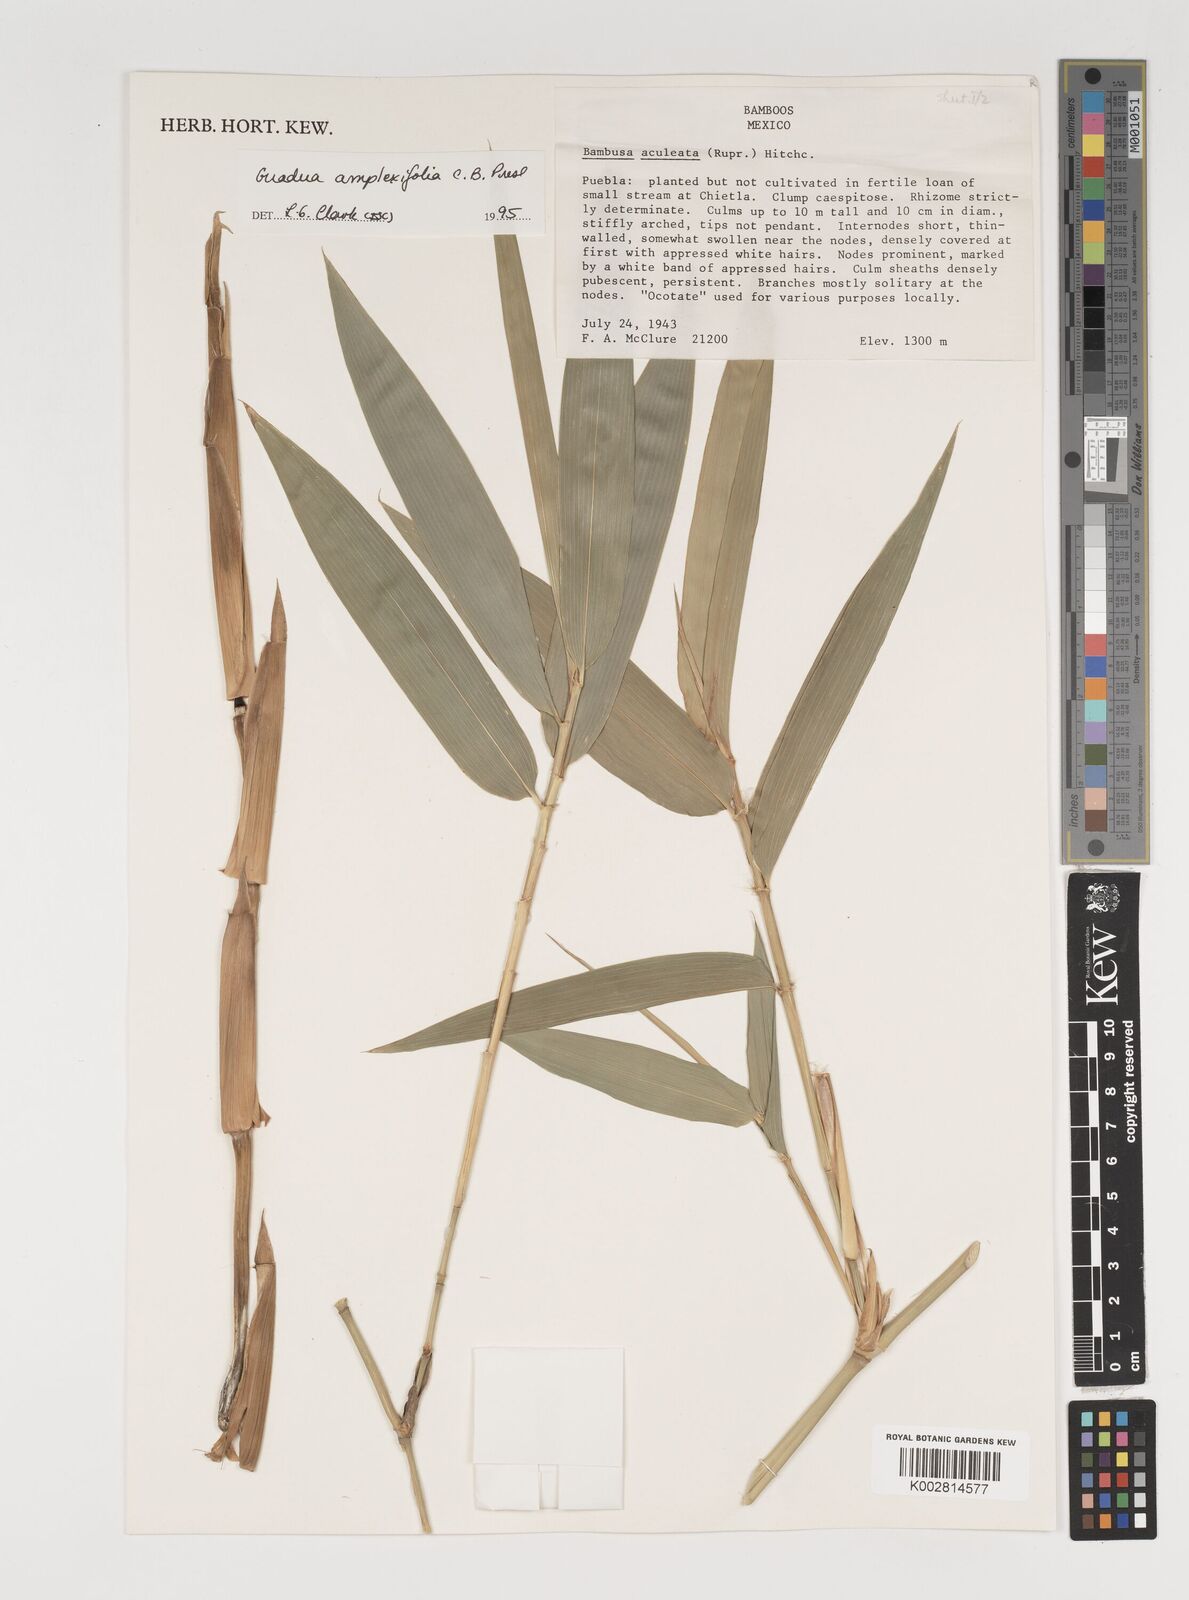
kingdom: Plantae
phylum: Tracheophyta
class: Liliopsida
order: Poales
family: Poaceae
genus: Guadua
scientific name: Guadua
